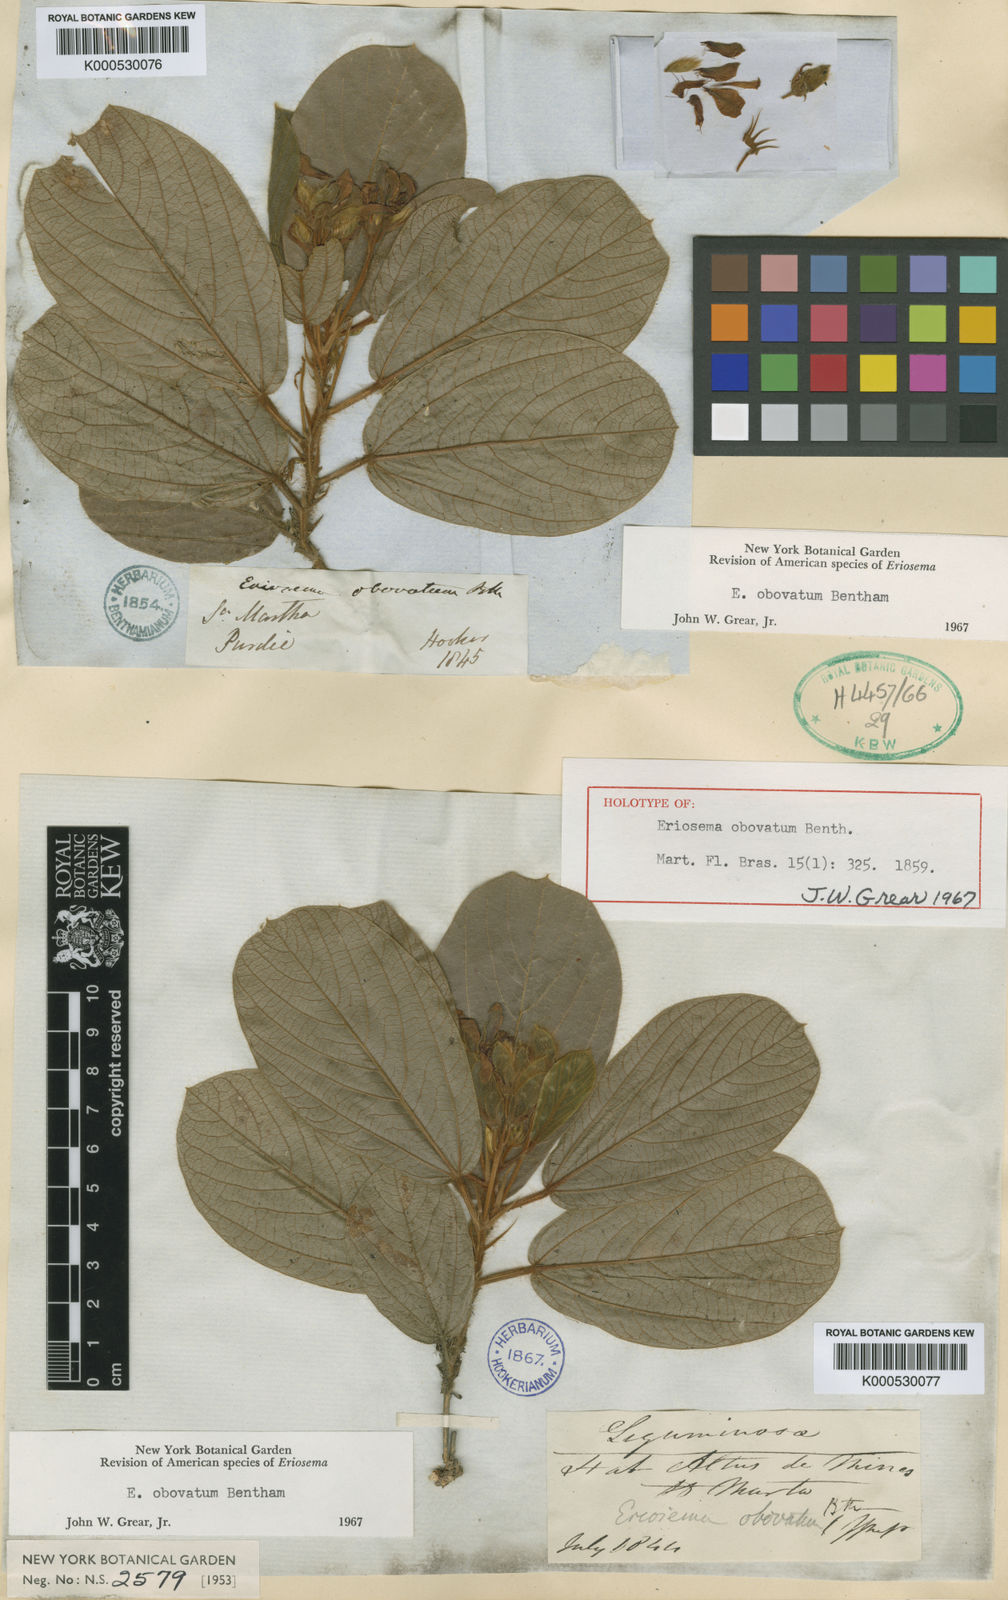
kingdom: Plantae
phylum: Tracheophyta
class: Magnoliopsida
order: Fabales
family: Fabaceae
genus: Eriosema
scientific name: Eriosema obovatum
